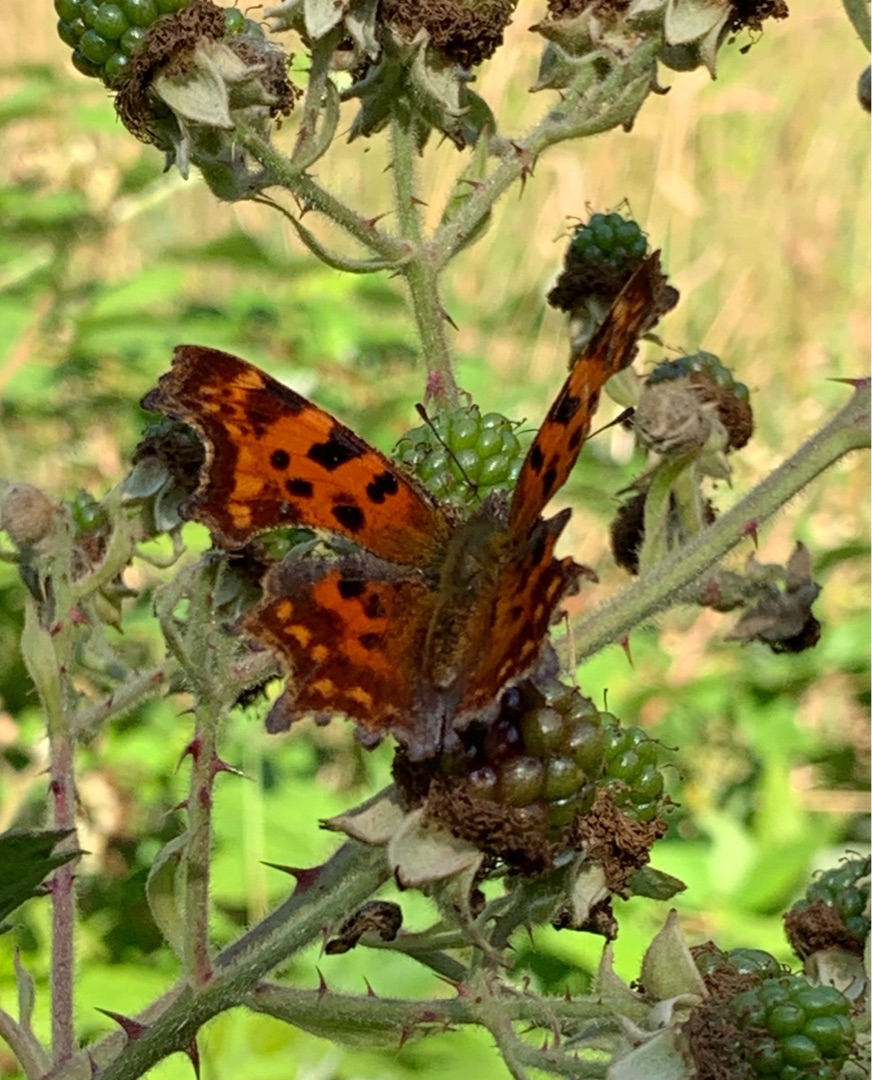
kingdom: Animalia
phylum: Arthropoda
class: Insecta
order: Lepidoptera
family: Nymphalidae
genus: Polygonia
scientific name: Polygonia c-album
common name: Det hvide C
